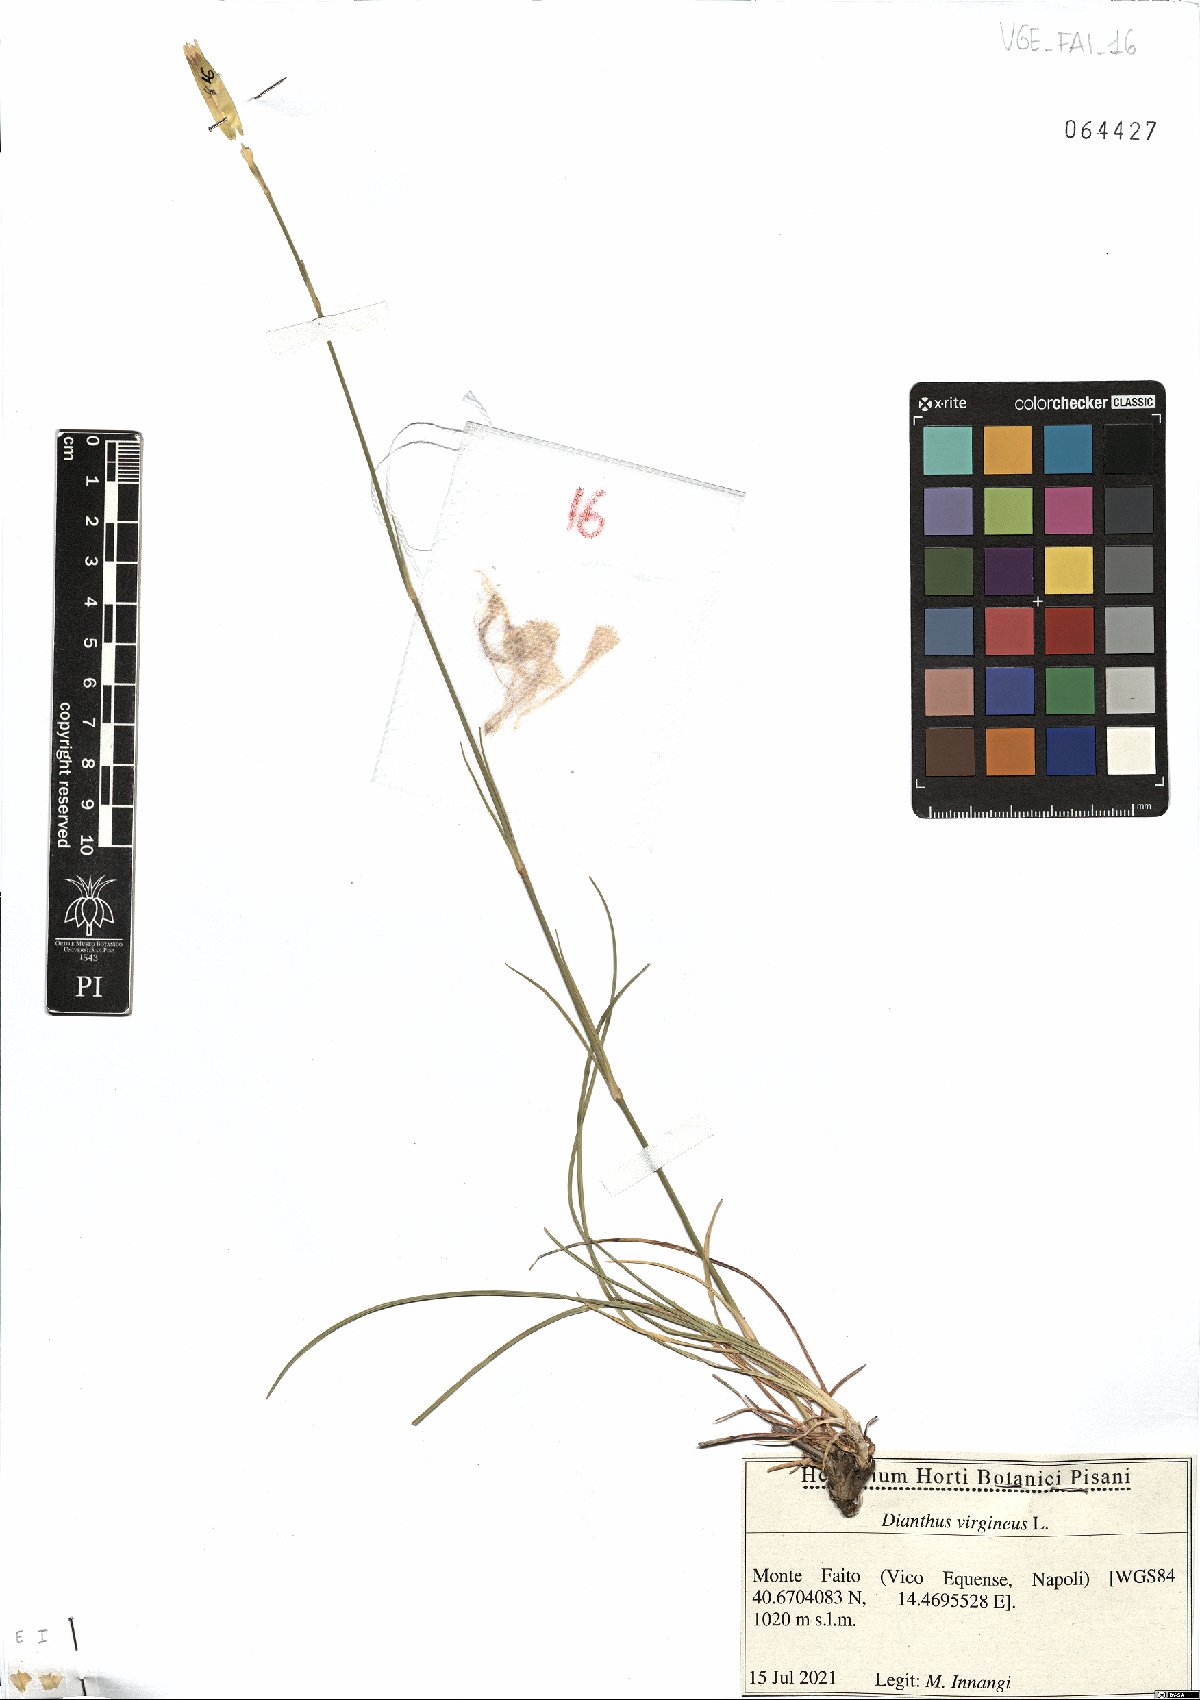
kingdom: Plantae
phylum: Tracheophyta
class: Magnoliopsida
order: Caryophyllales
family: Caryophyllaceae
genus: Dianthus
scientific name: Dianthus virgineus
